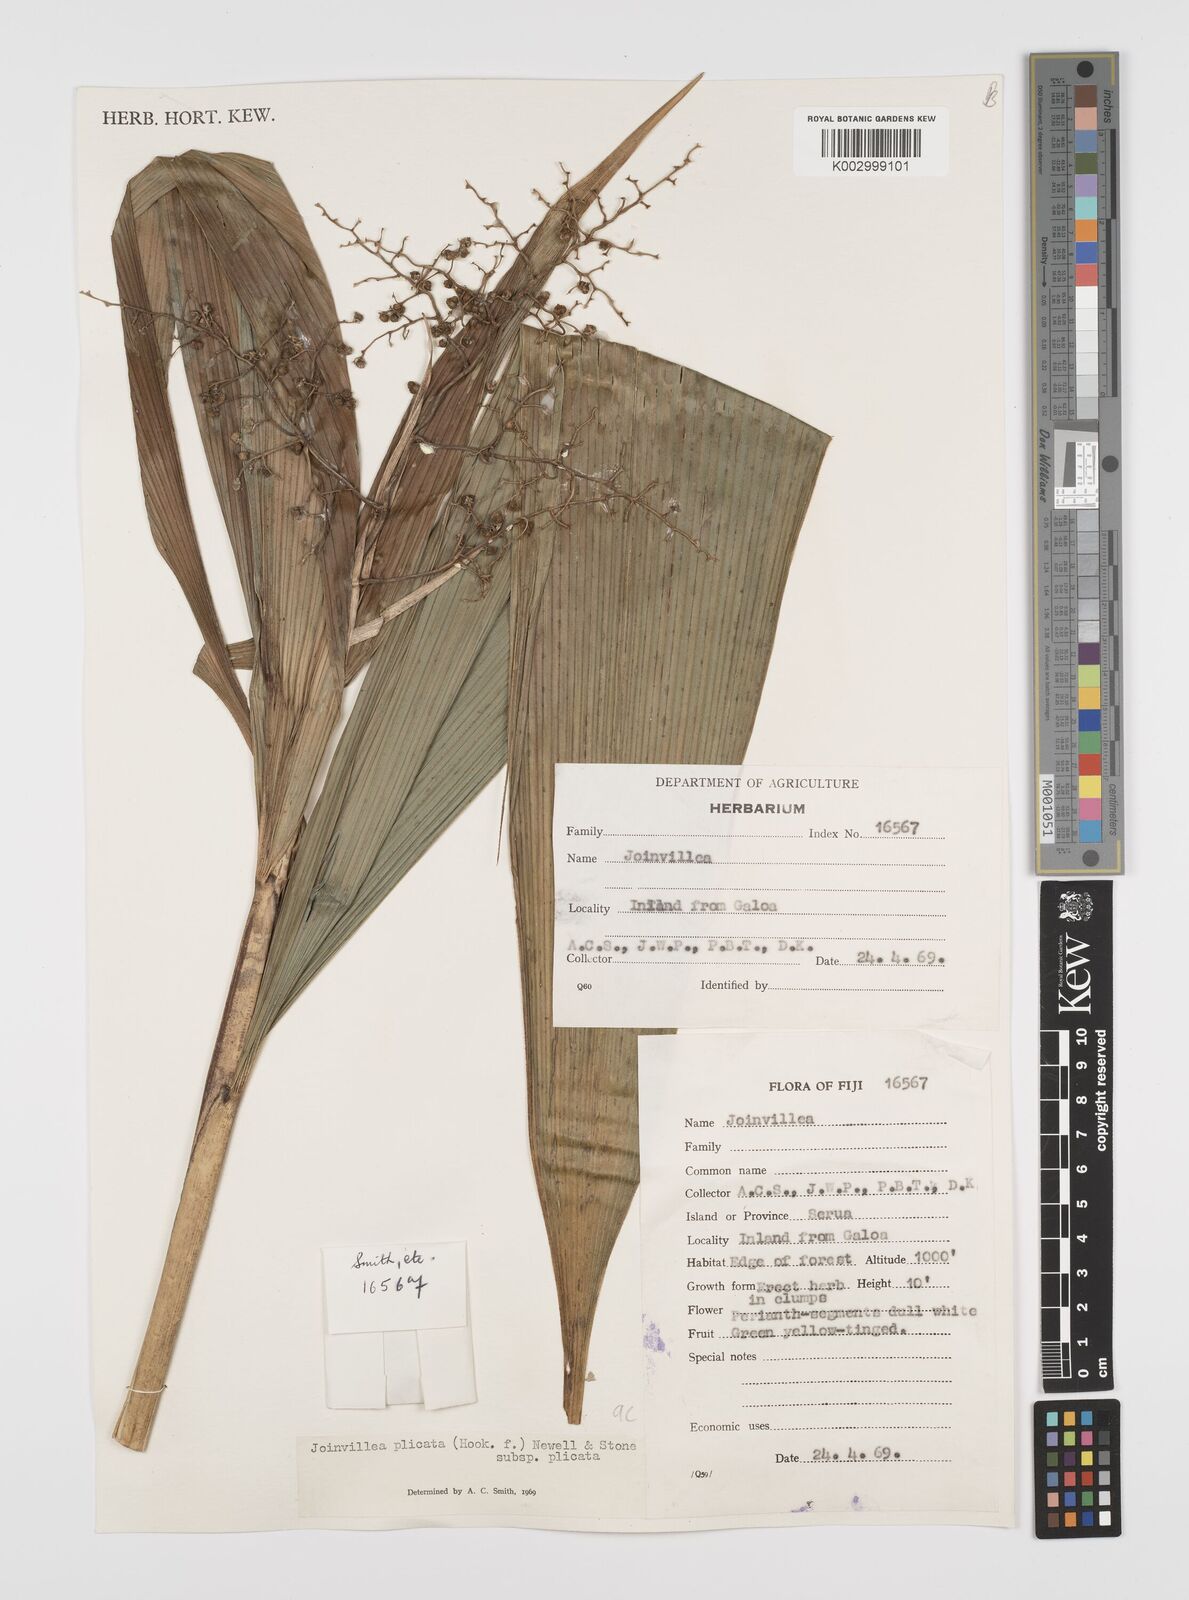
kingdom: Plantae
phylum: Tracheophyta
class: Liliopsida
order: Poales
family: Joinvilleaceae
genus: Joinvillea
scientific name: Joinvillea plicata
